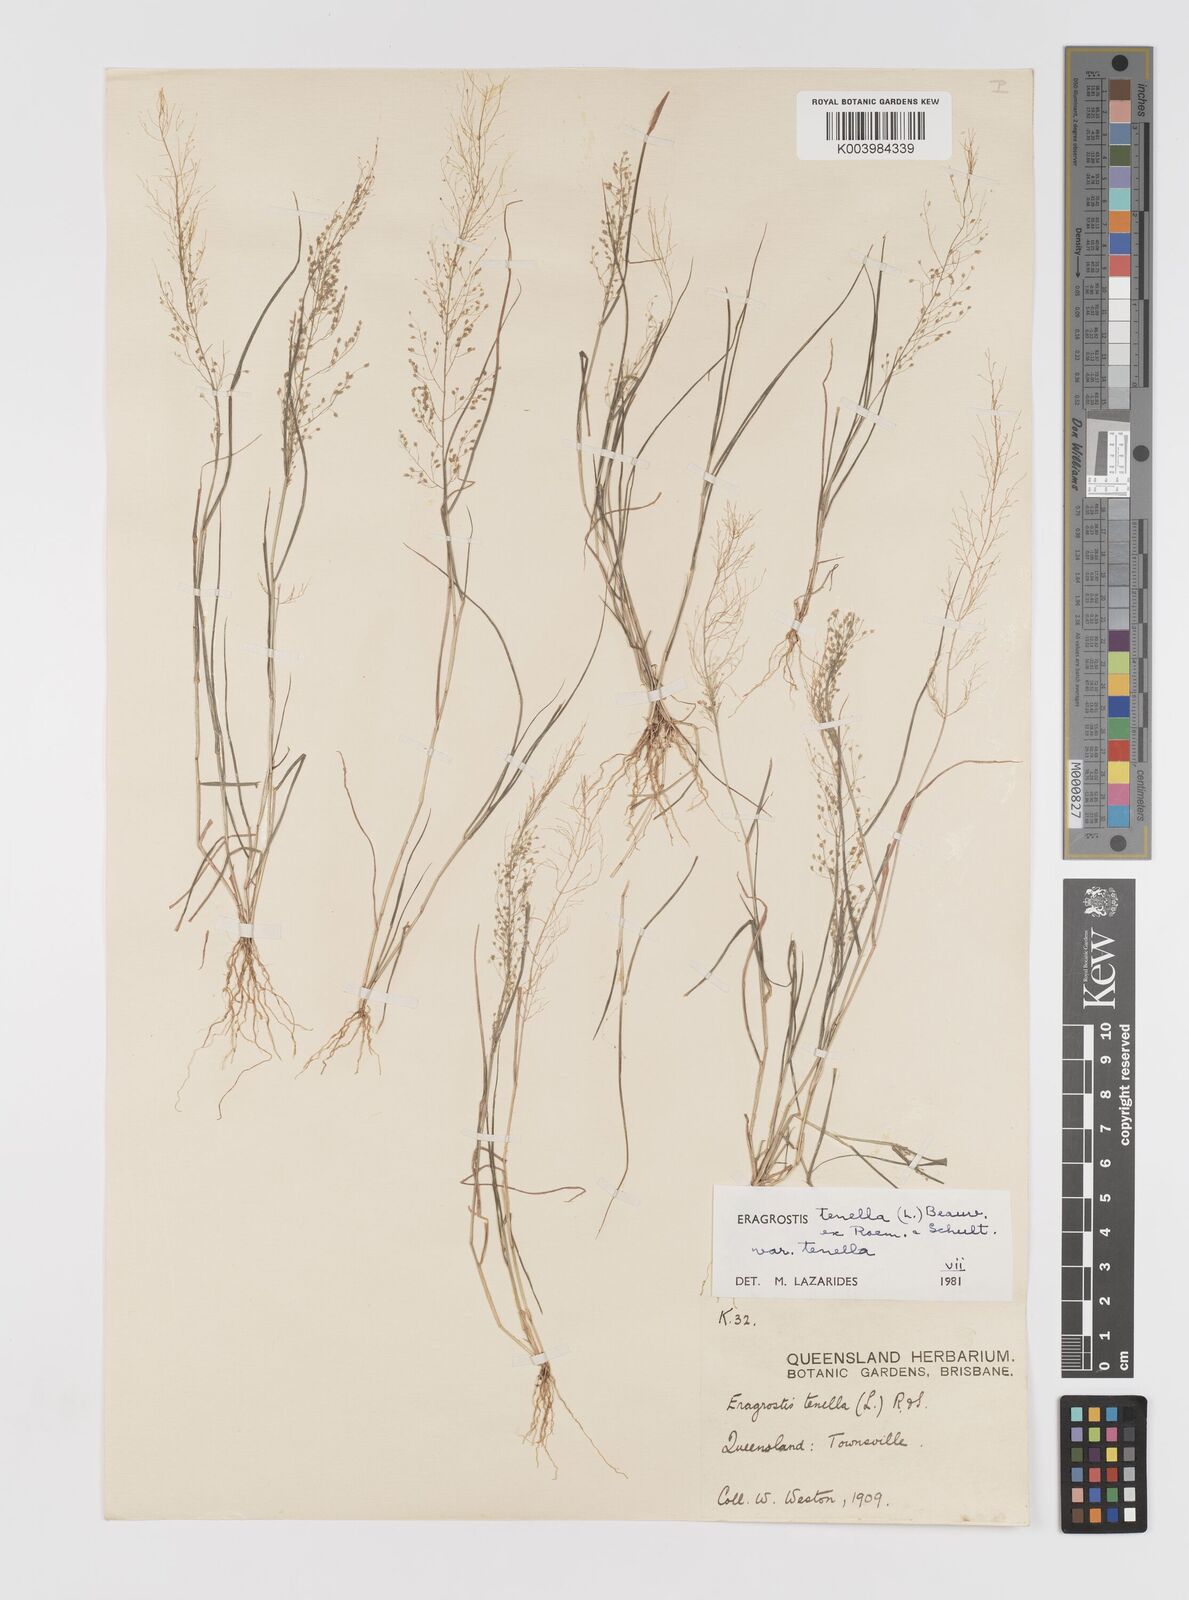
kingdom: Plantae
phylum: Tracheophyta
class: Liliopsida
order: Poales
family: Poaceae
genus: Eragrostis
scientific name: Eragrostis tenella
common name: Japanese lovegrass
